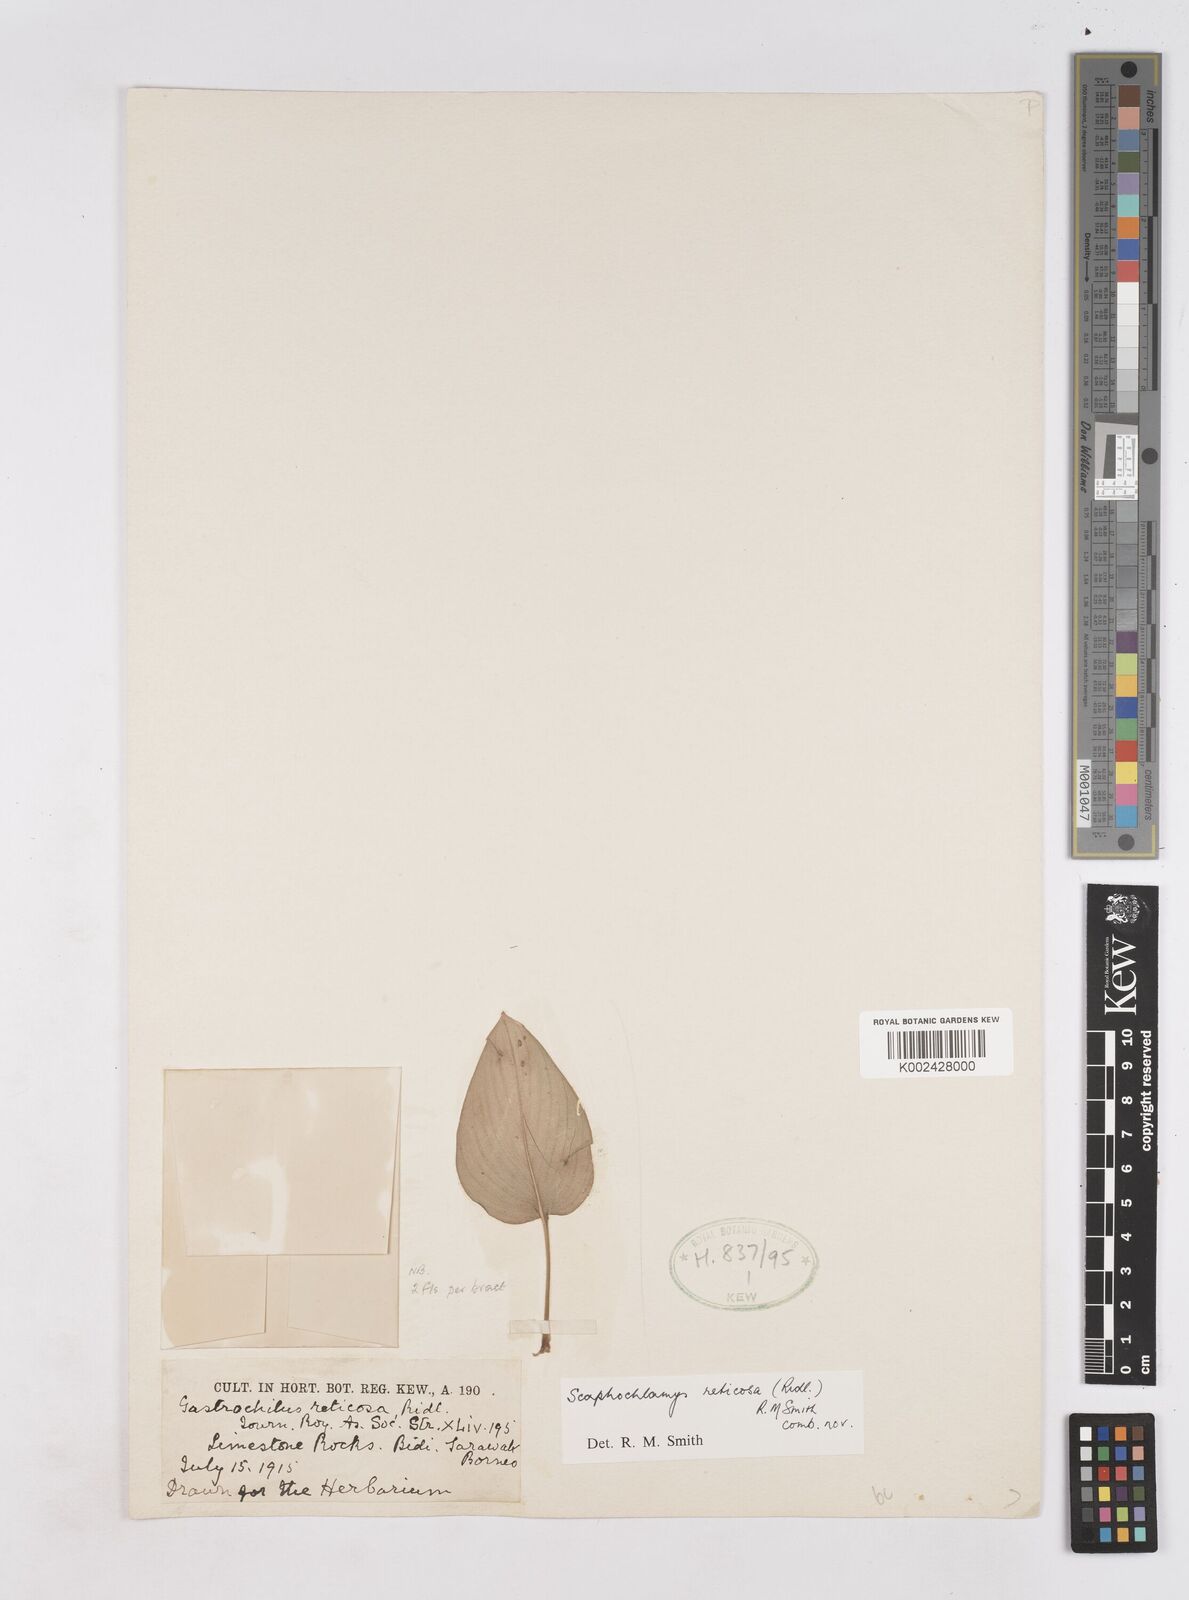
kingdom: Plantae
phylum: Tracheophyta
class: Liliopsida
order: Zingiberales
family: Zingiberaceae
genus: Scaphochlamys
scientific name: Scaphochlamys reticosa
